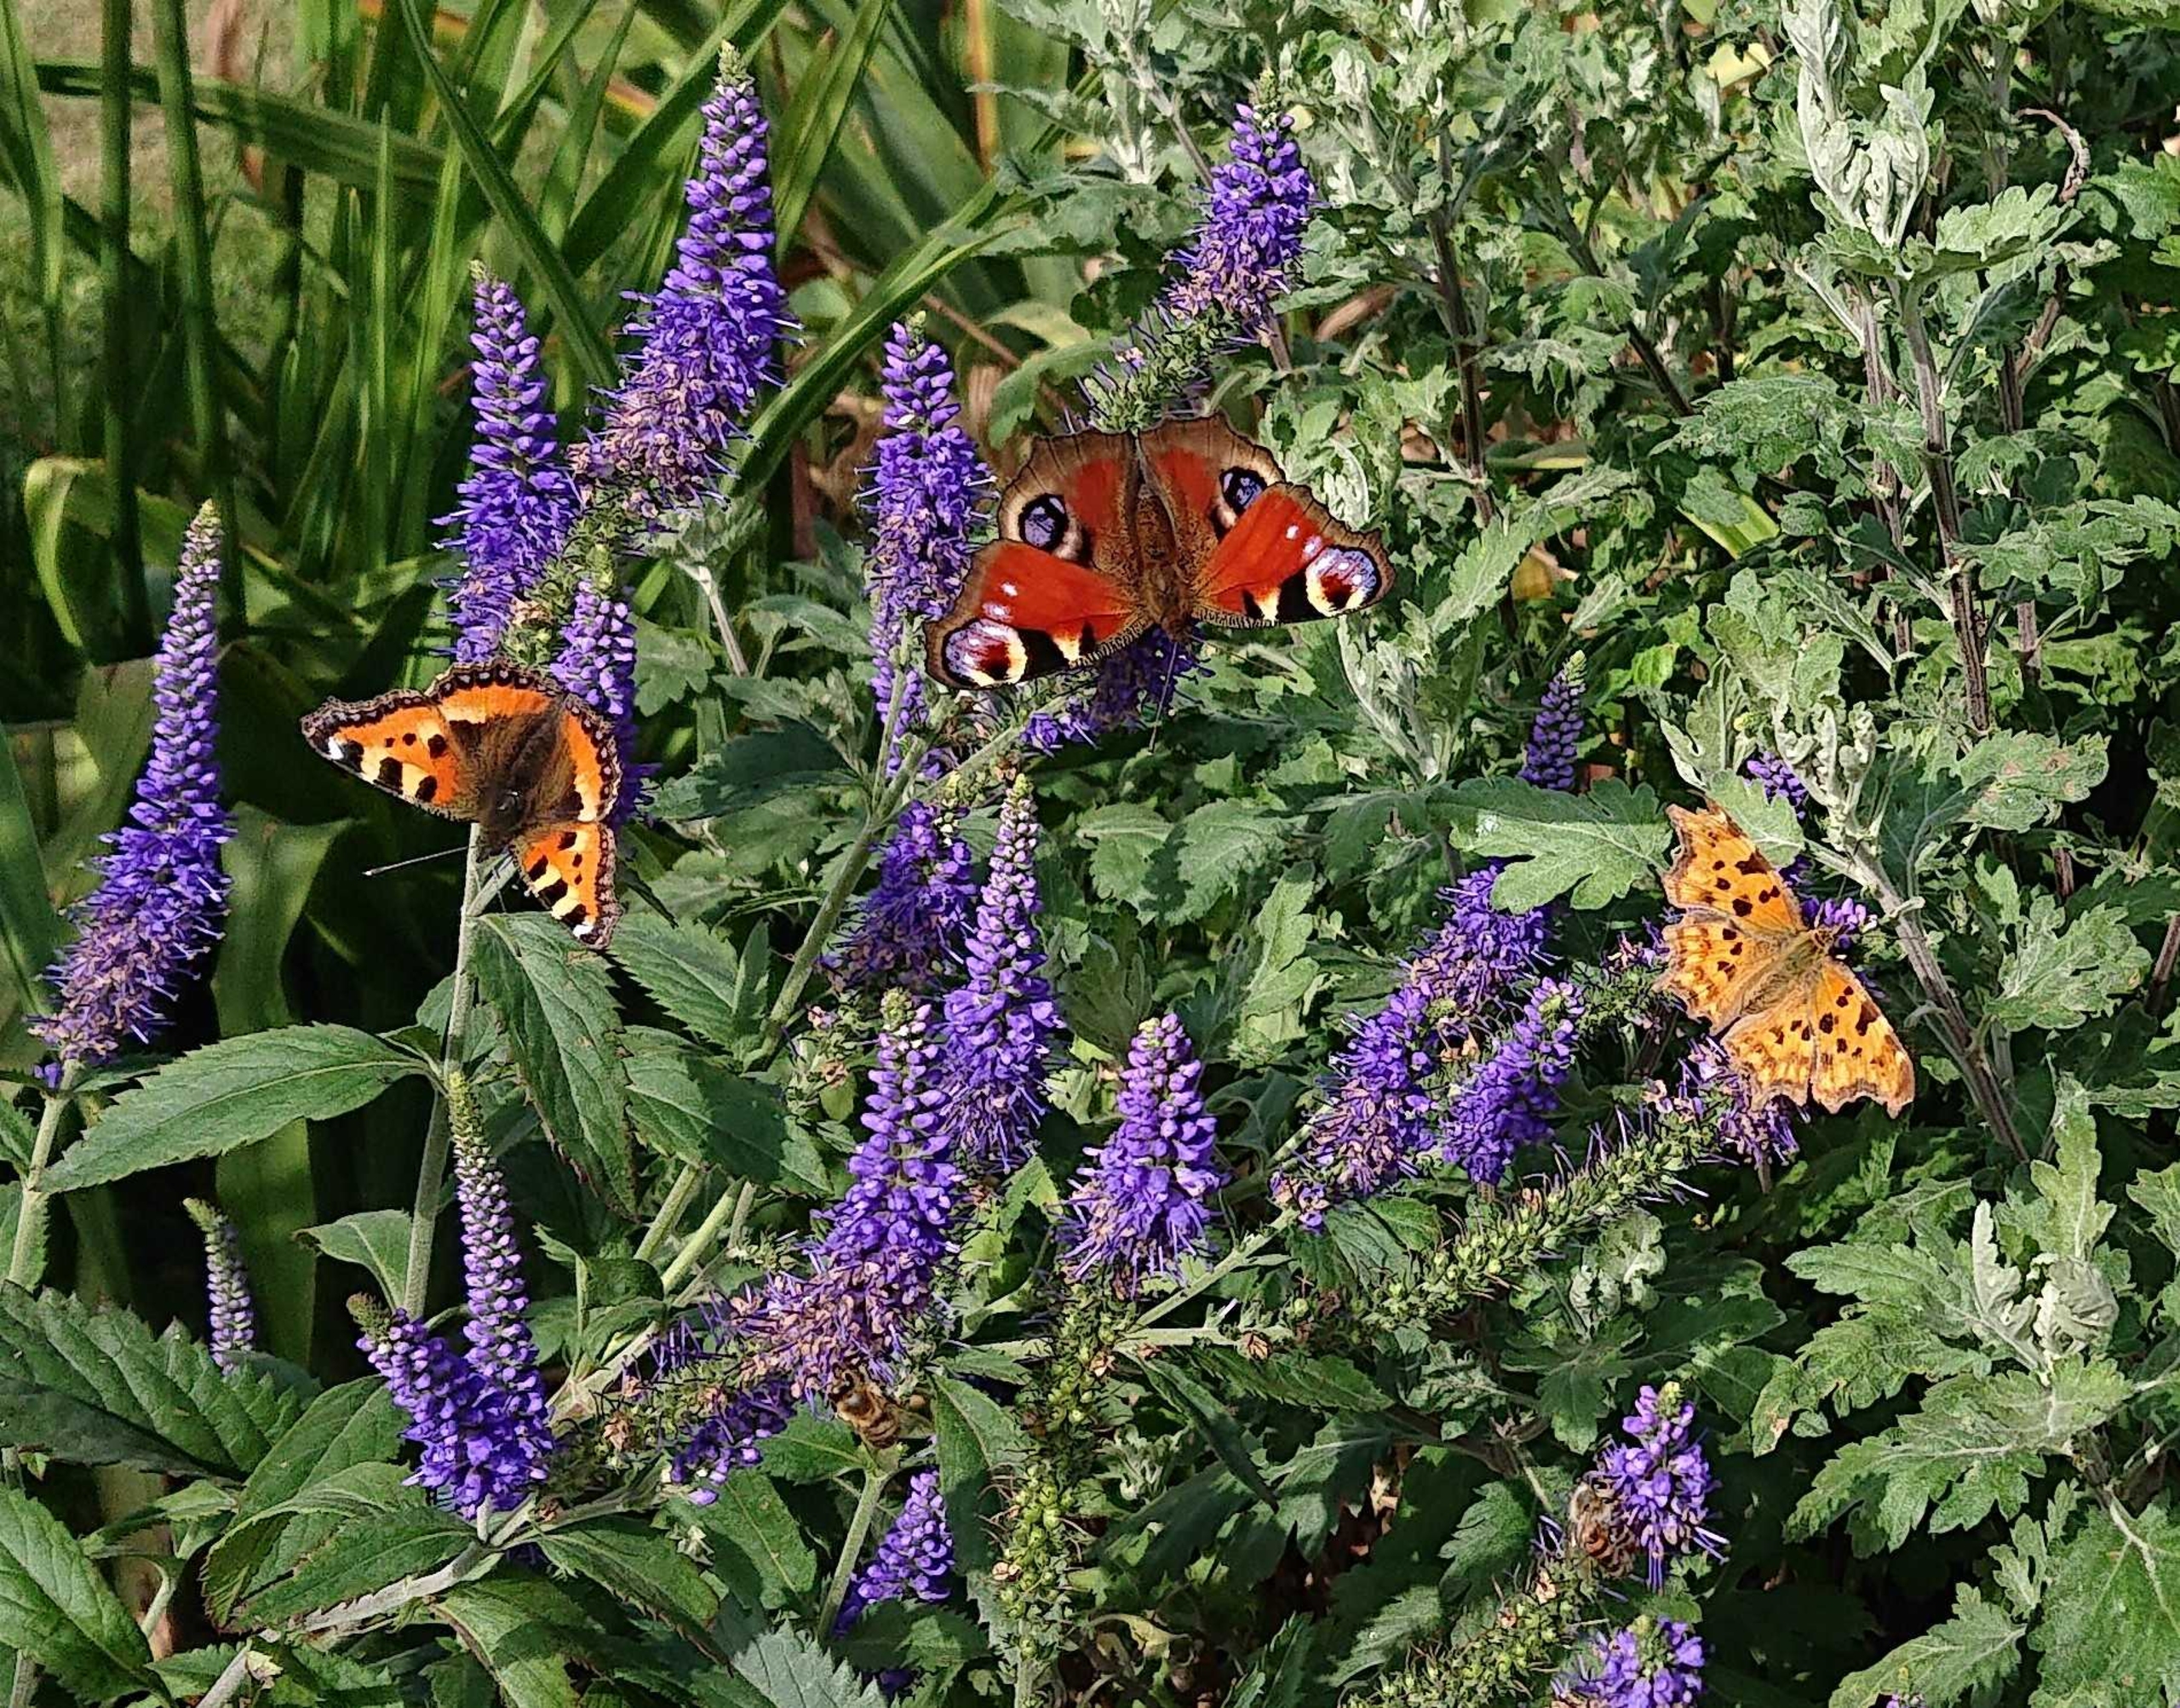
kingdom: Animalia
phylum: Arthropoda
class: Insecta
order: Lepidoptera
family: Nymphalidae
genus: Polygonia
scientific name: Polygonia c-album
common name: Det hvide C
